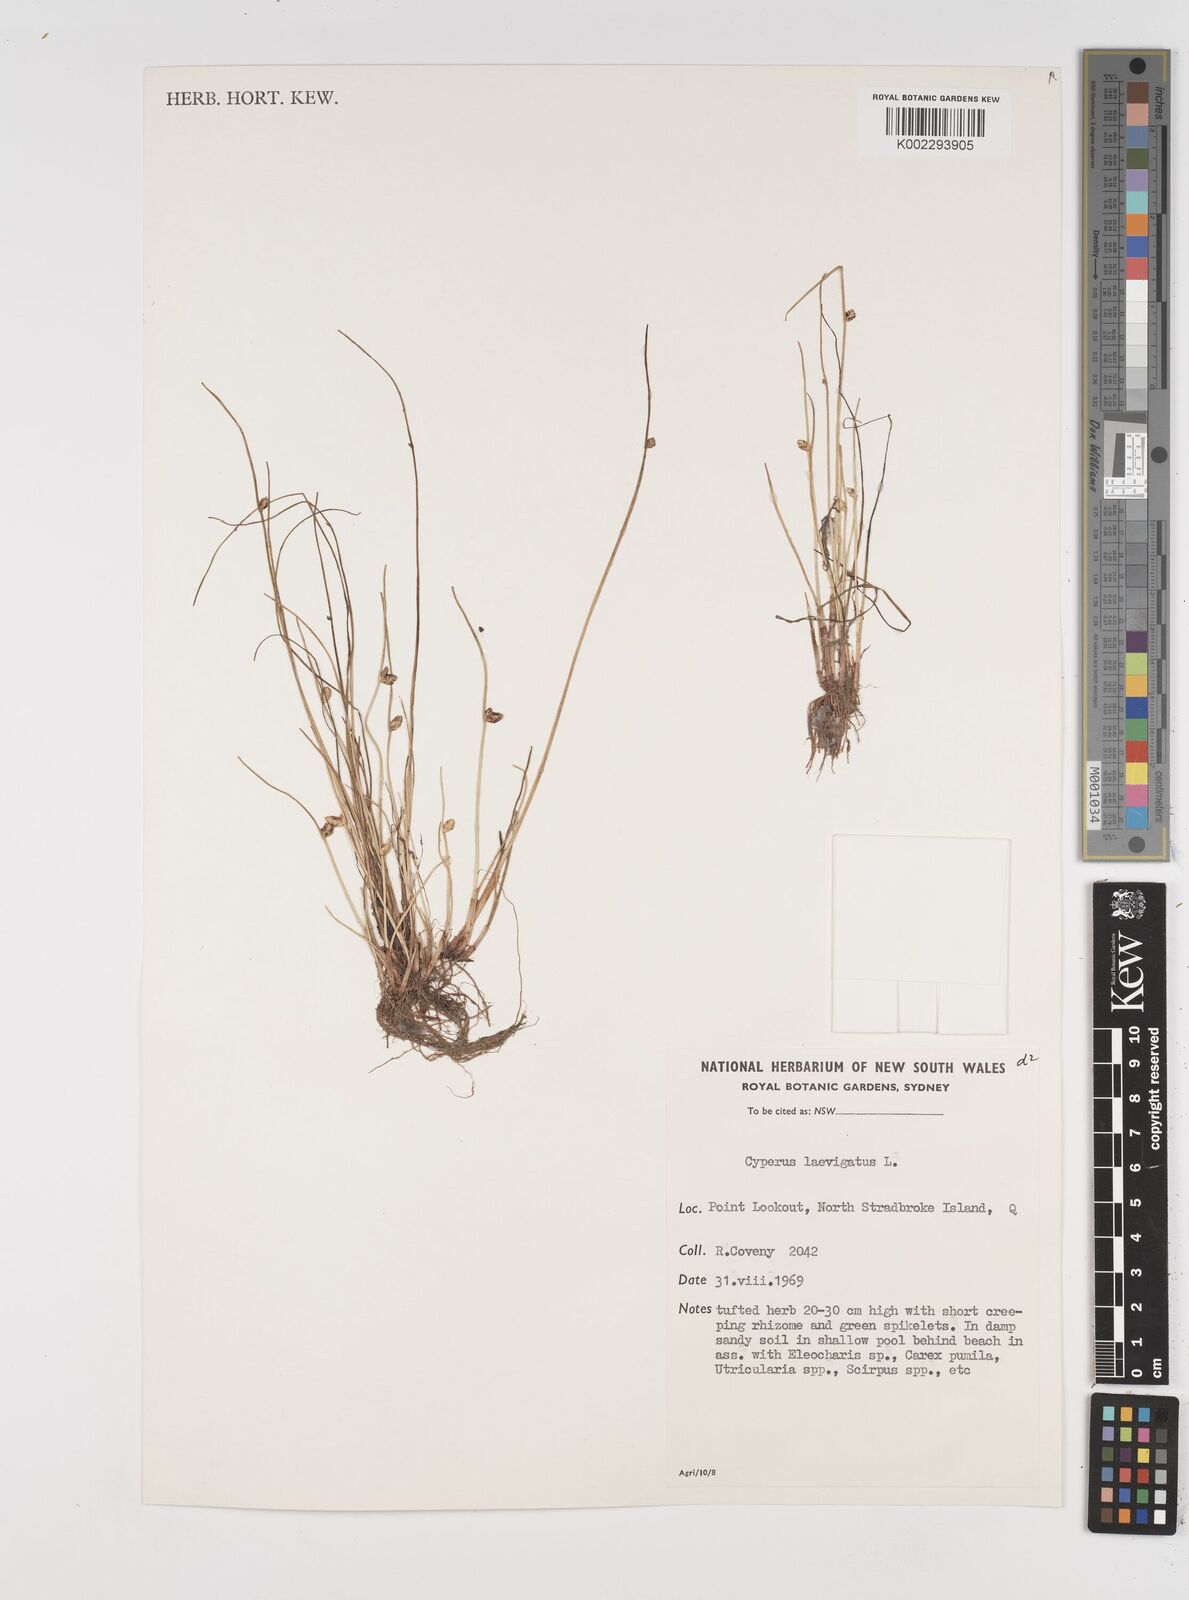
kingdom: Plantae
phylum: Tracheophyta
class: Liliopsida
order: Poales
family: Cyperaceae
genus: Cyperus
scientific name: Cyperus laevigatus
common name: Smooth flat sedge
